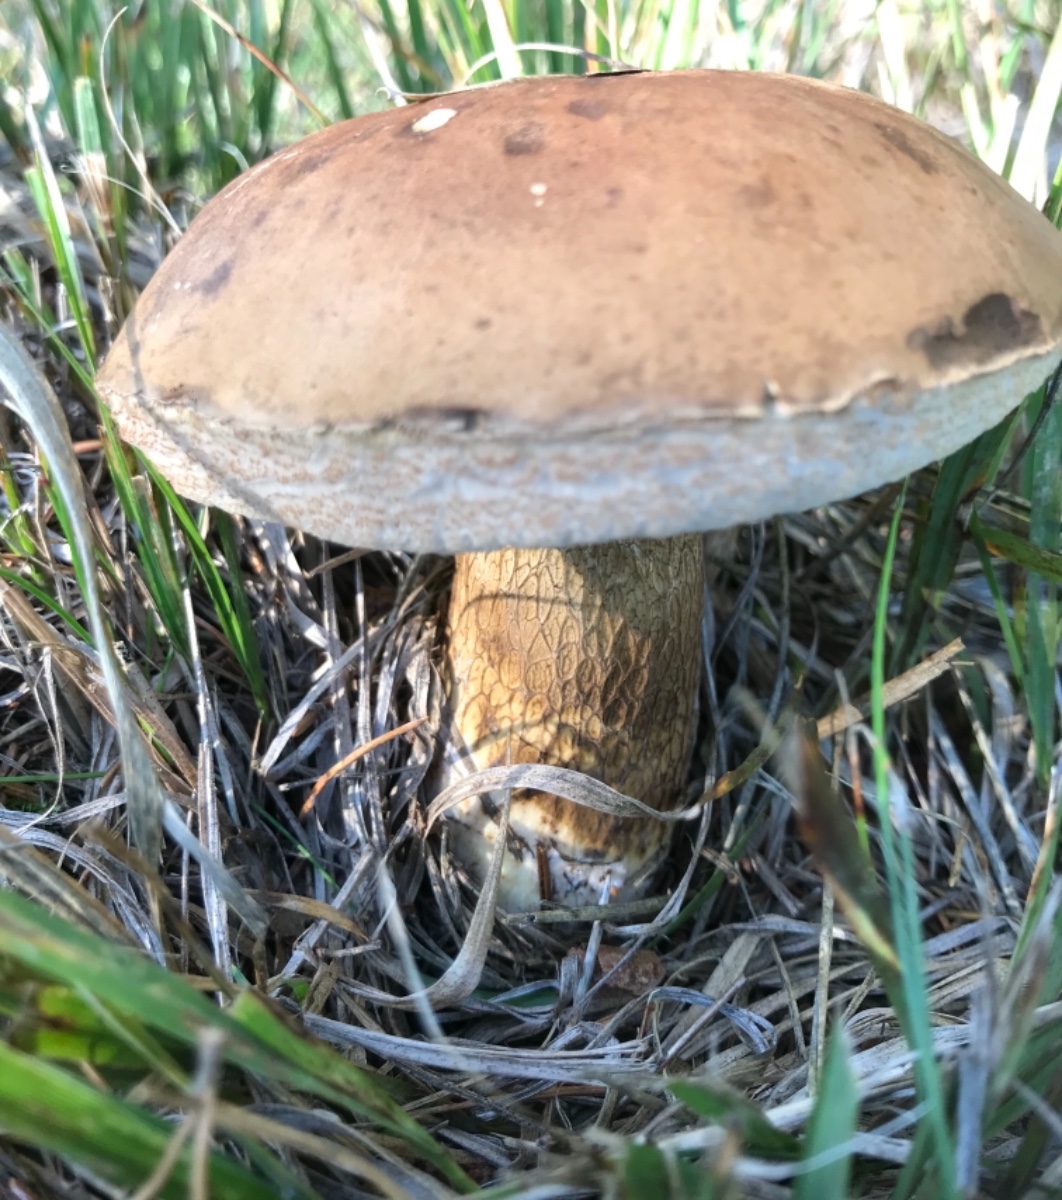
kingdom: Fungi
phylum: Basidiomycota
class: Agaricomycetes
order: Boletales
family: Boletaceae
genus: Tylopilus
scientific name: Tylopilus felleus
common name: galderørhat
